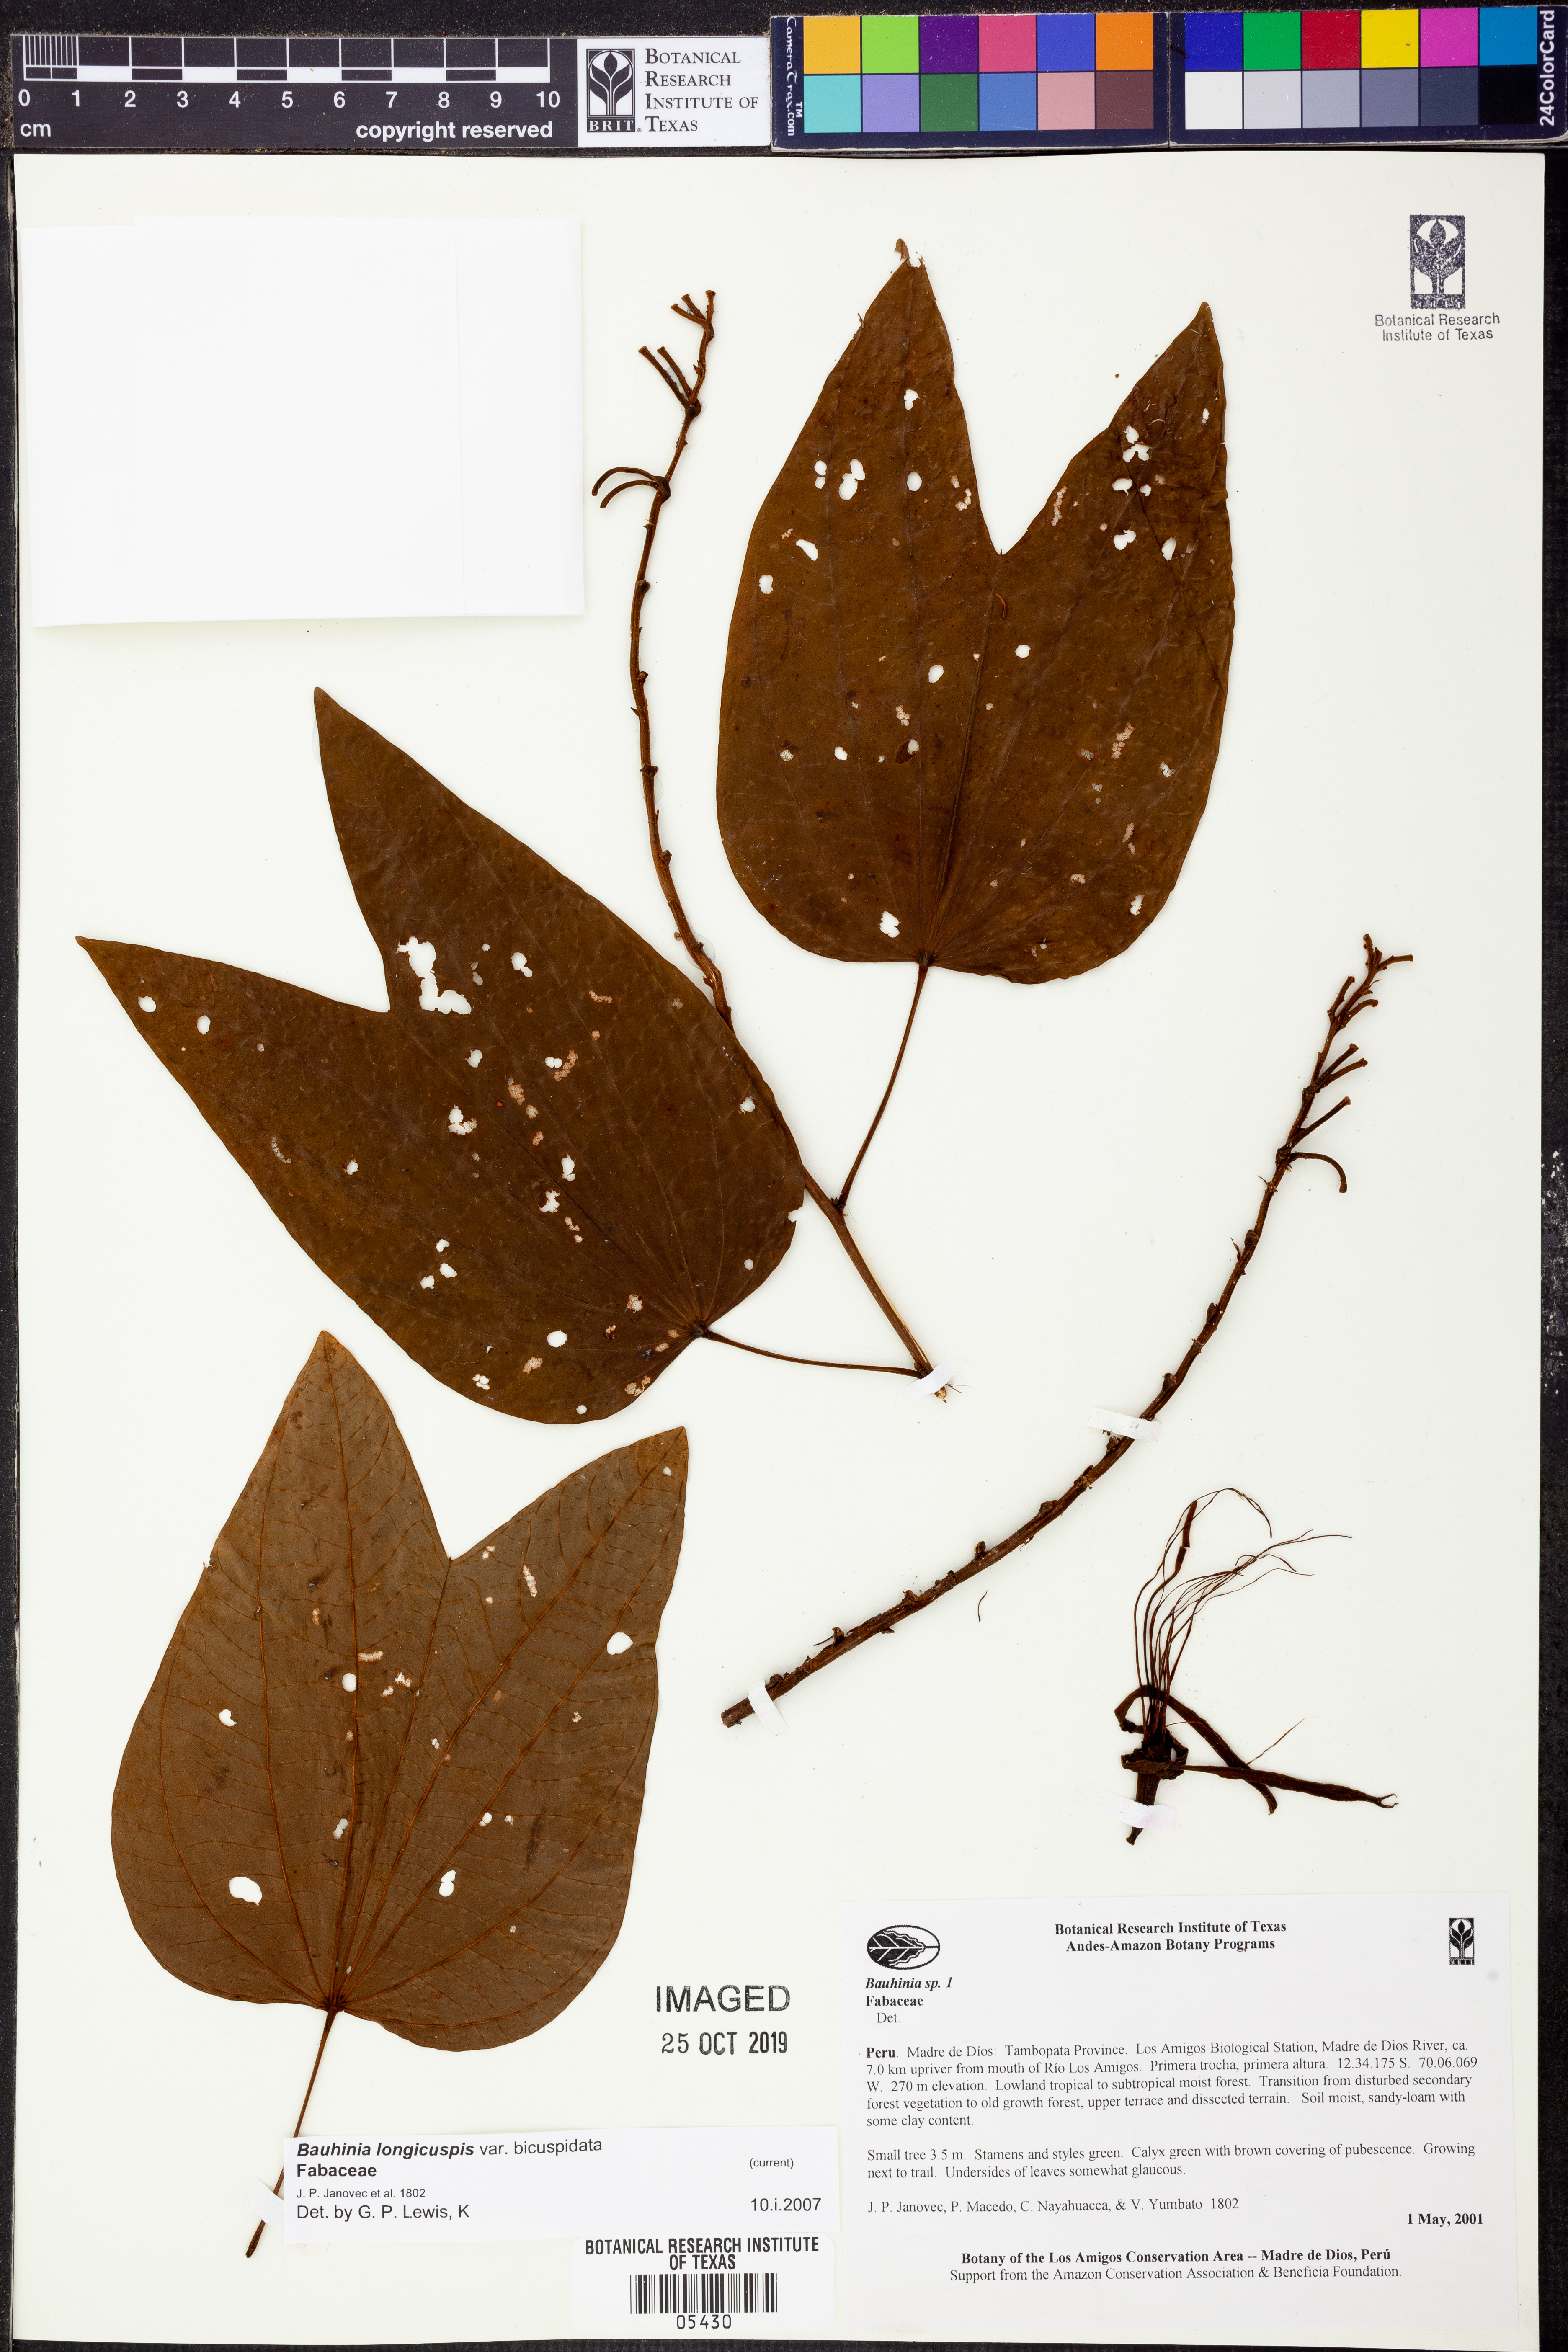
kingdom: Plantae
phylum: Tracheophyta
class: Magnoliopsida
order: Fabales
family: Fabaceae
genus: Bauhinia
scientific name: Bauhinia
